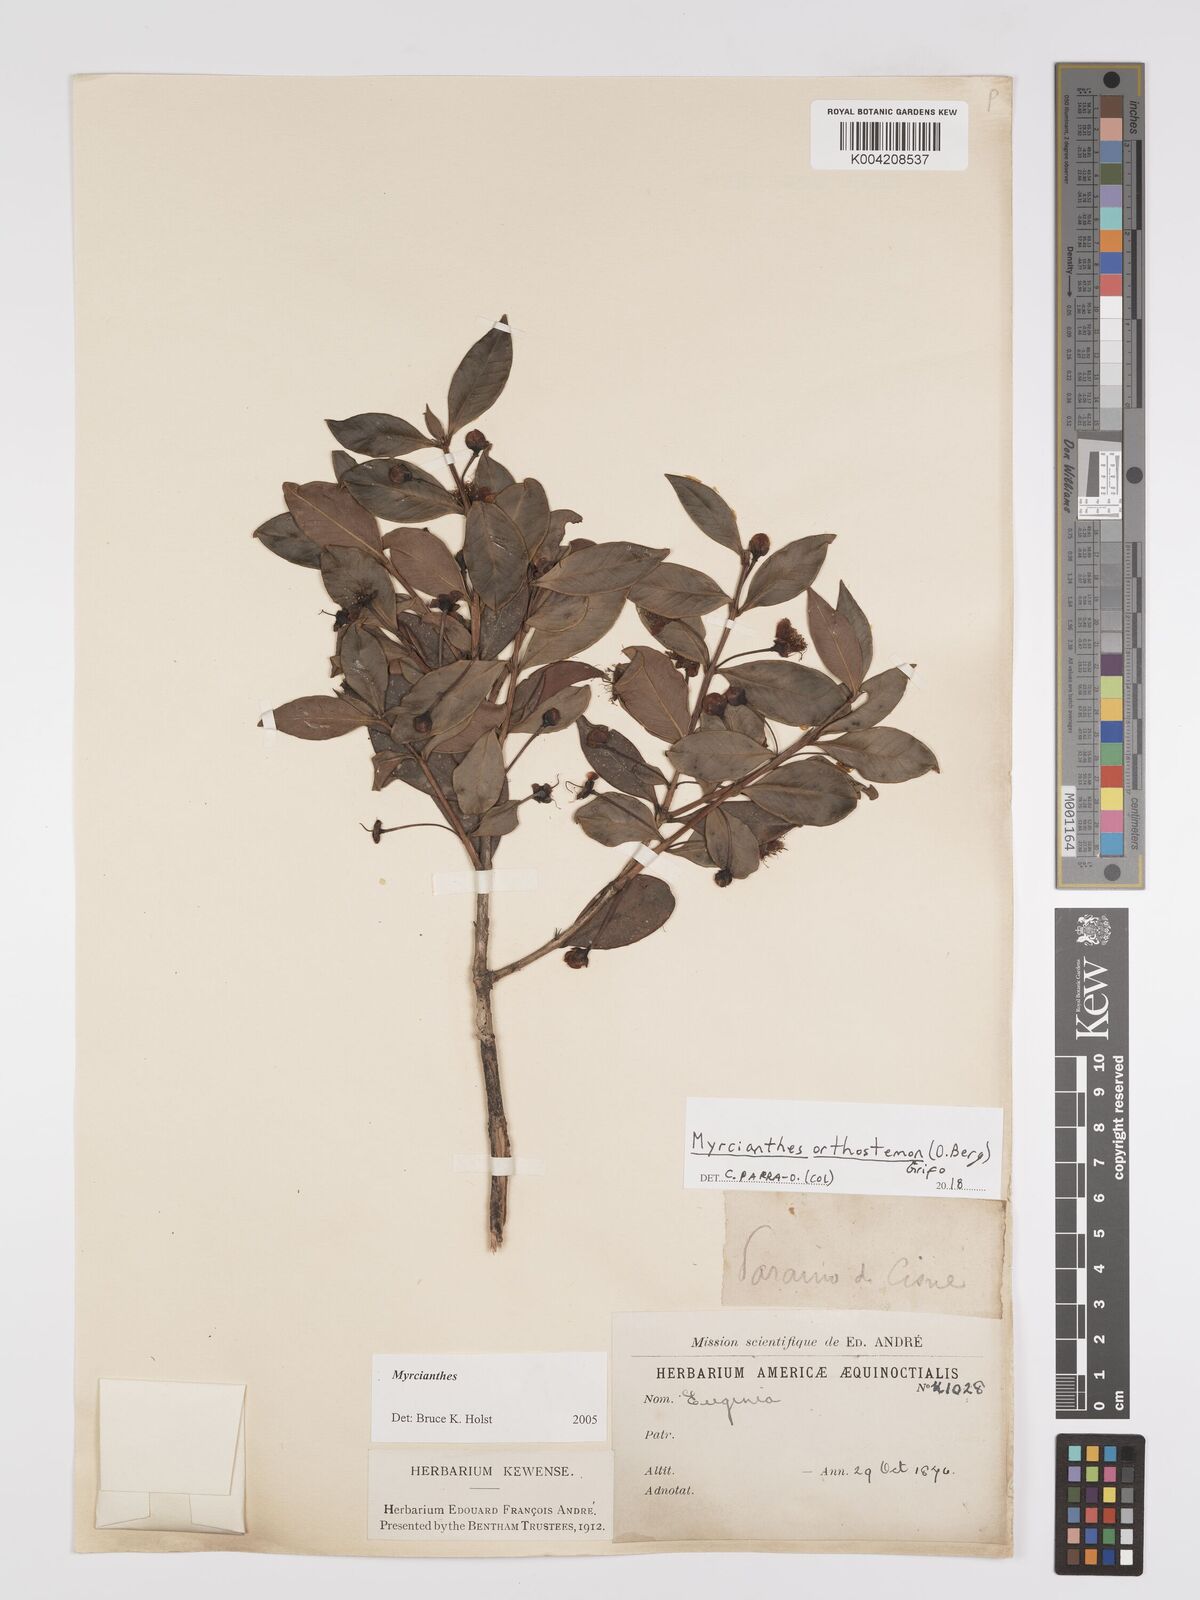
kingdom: Plantae
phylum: Tracheophyta
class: Magnoliopsida
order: Myrtales
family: Myrtaceae
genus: Myrcianthes
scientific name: Myrcianthes orthostemon
